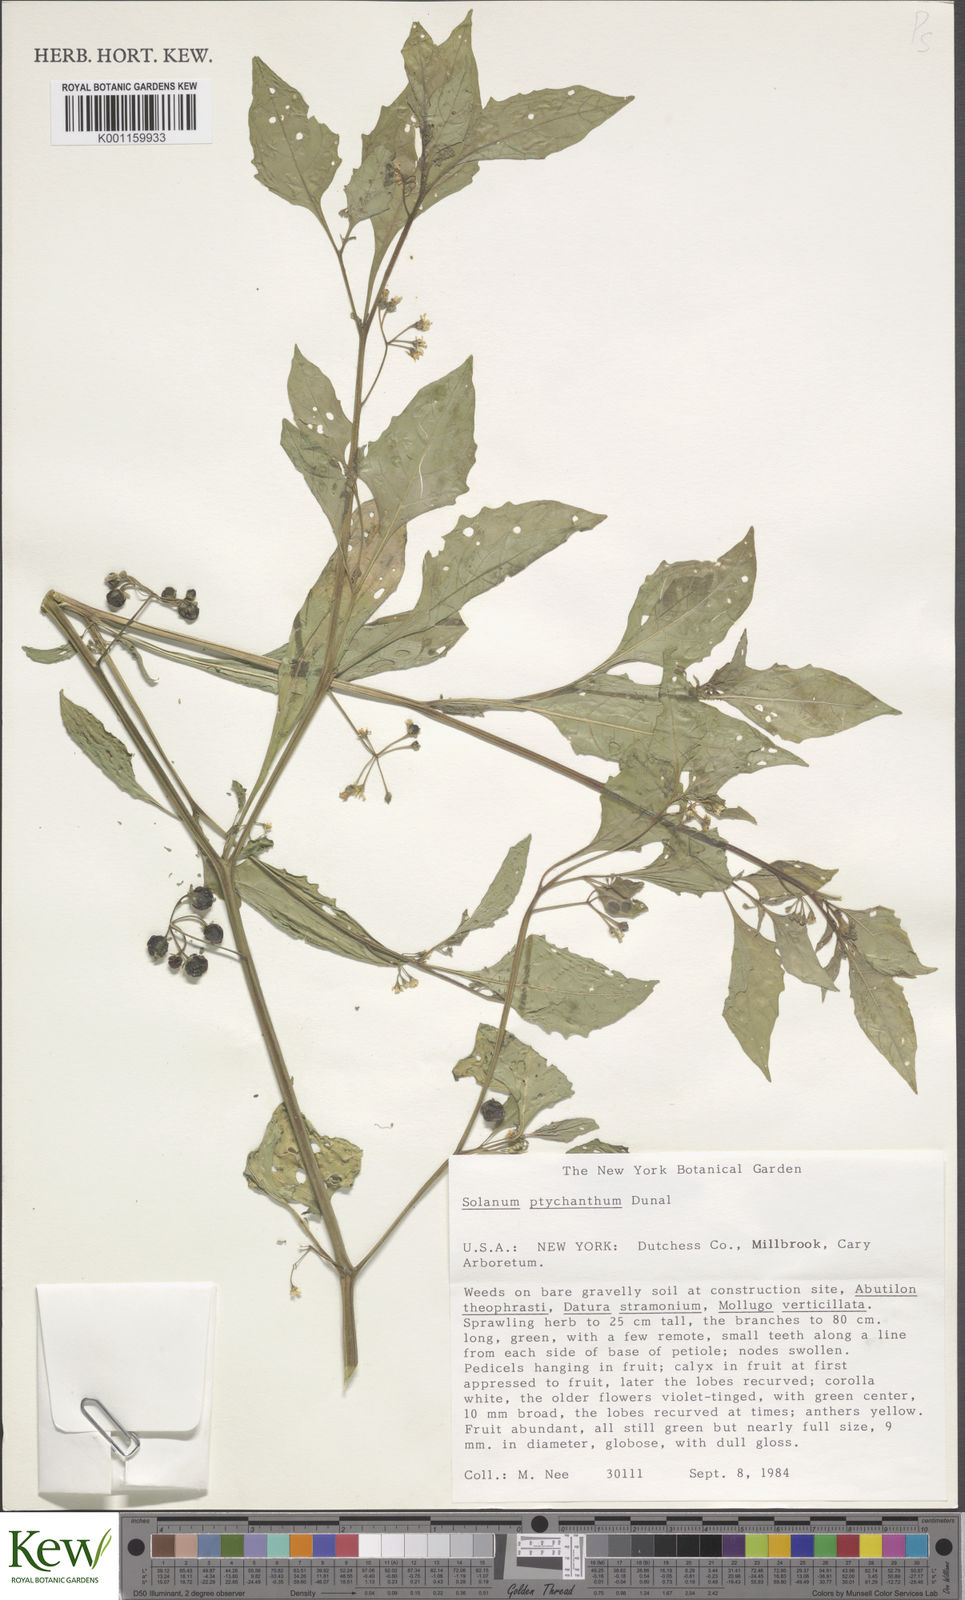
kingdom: Plantae
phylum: Tracheophyta
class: Magnoliopsida
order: Solanales
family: Solanaceae
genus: Solanum
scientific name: Solanum emulans
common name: Eastern black nightshade
